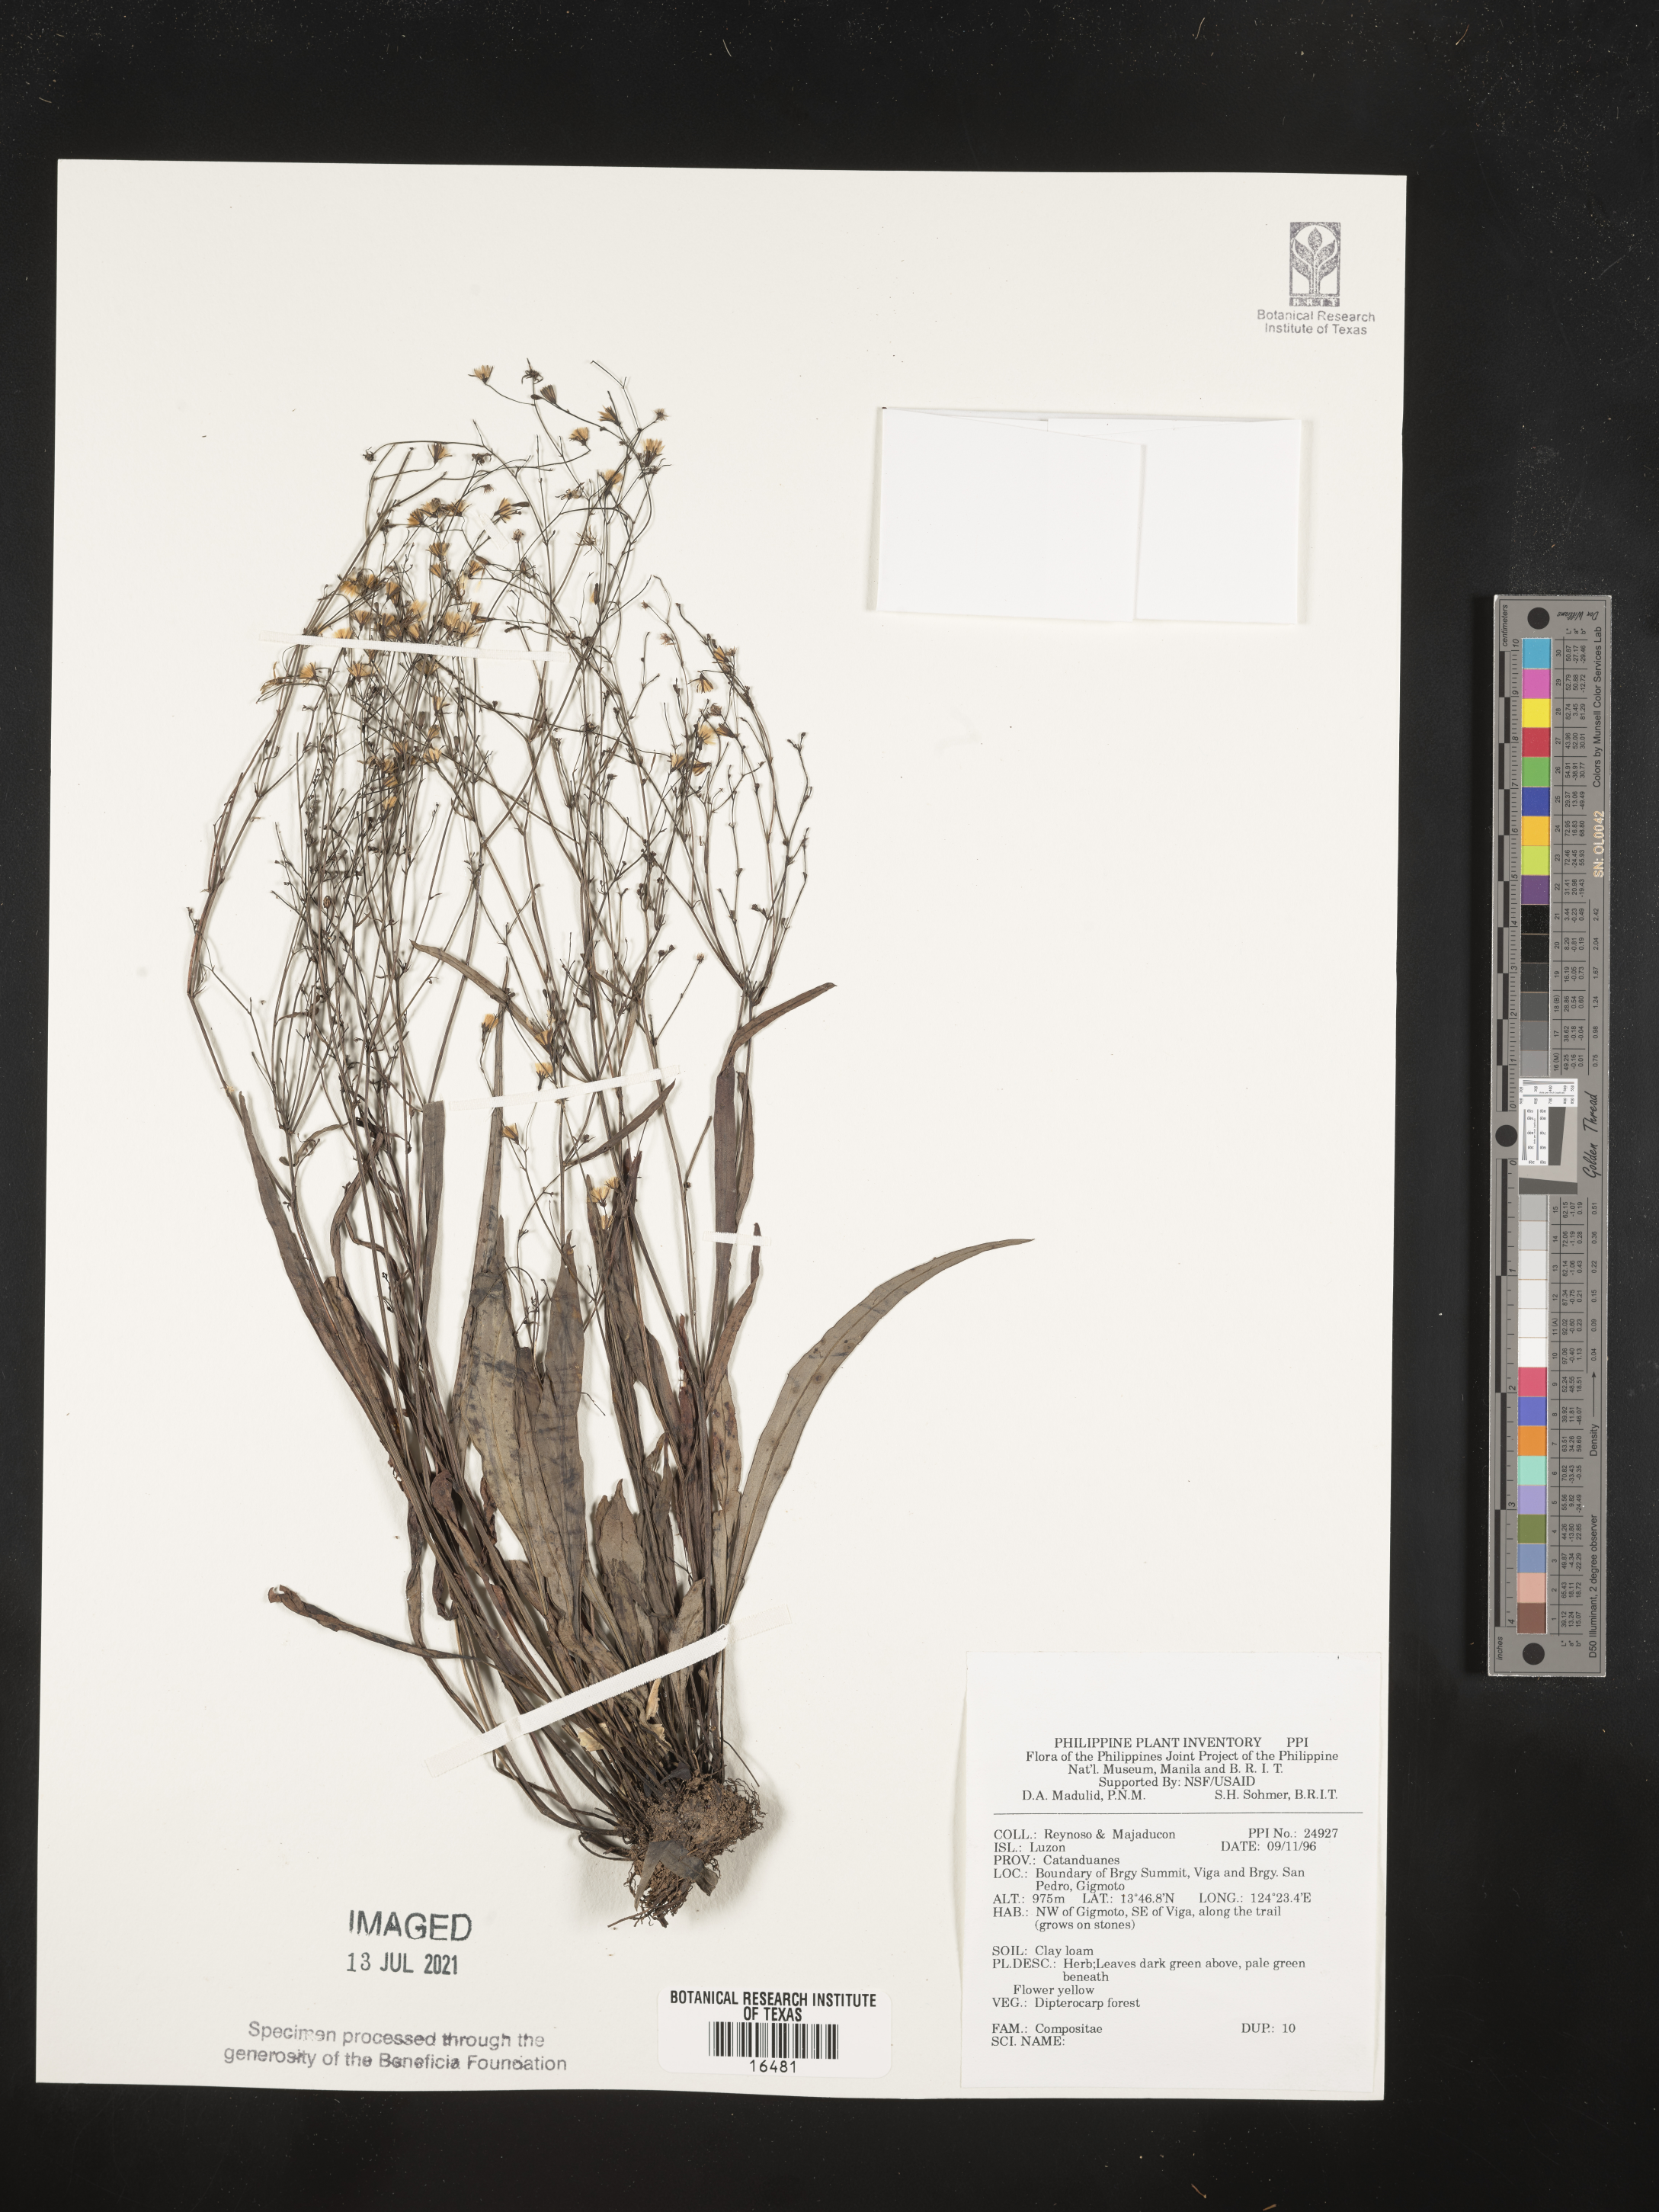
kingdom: Plantae
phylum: Tracheophyta
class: Magnoliopsida
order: Asterales
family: Asteraceae
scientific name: Asteraceae
